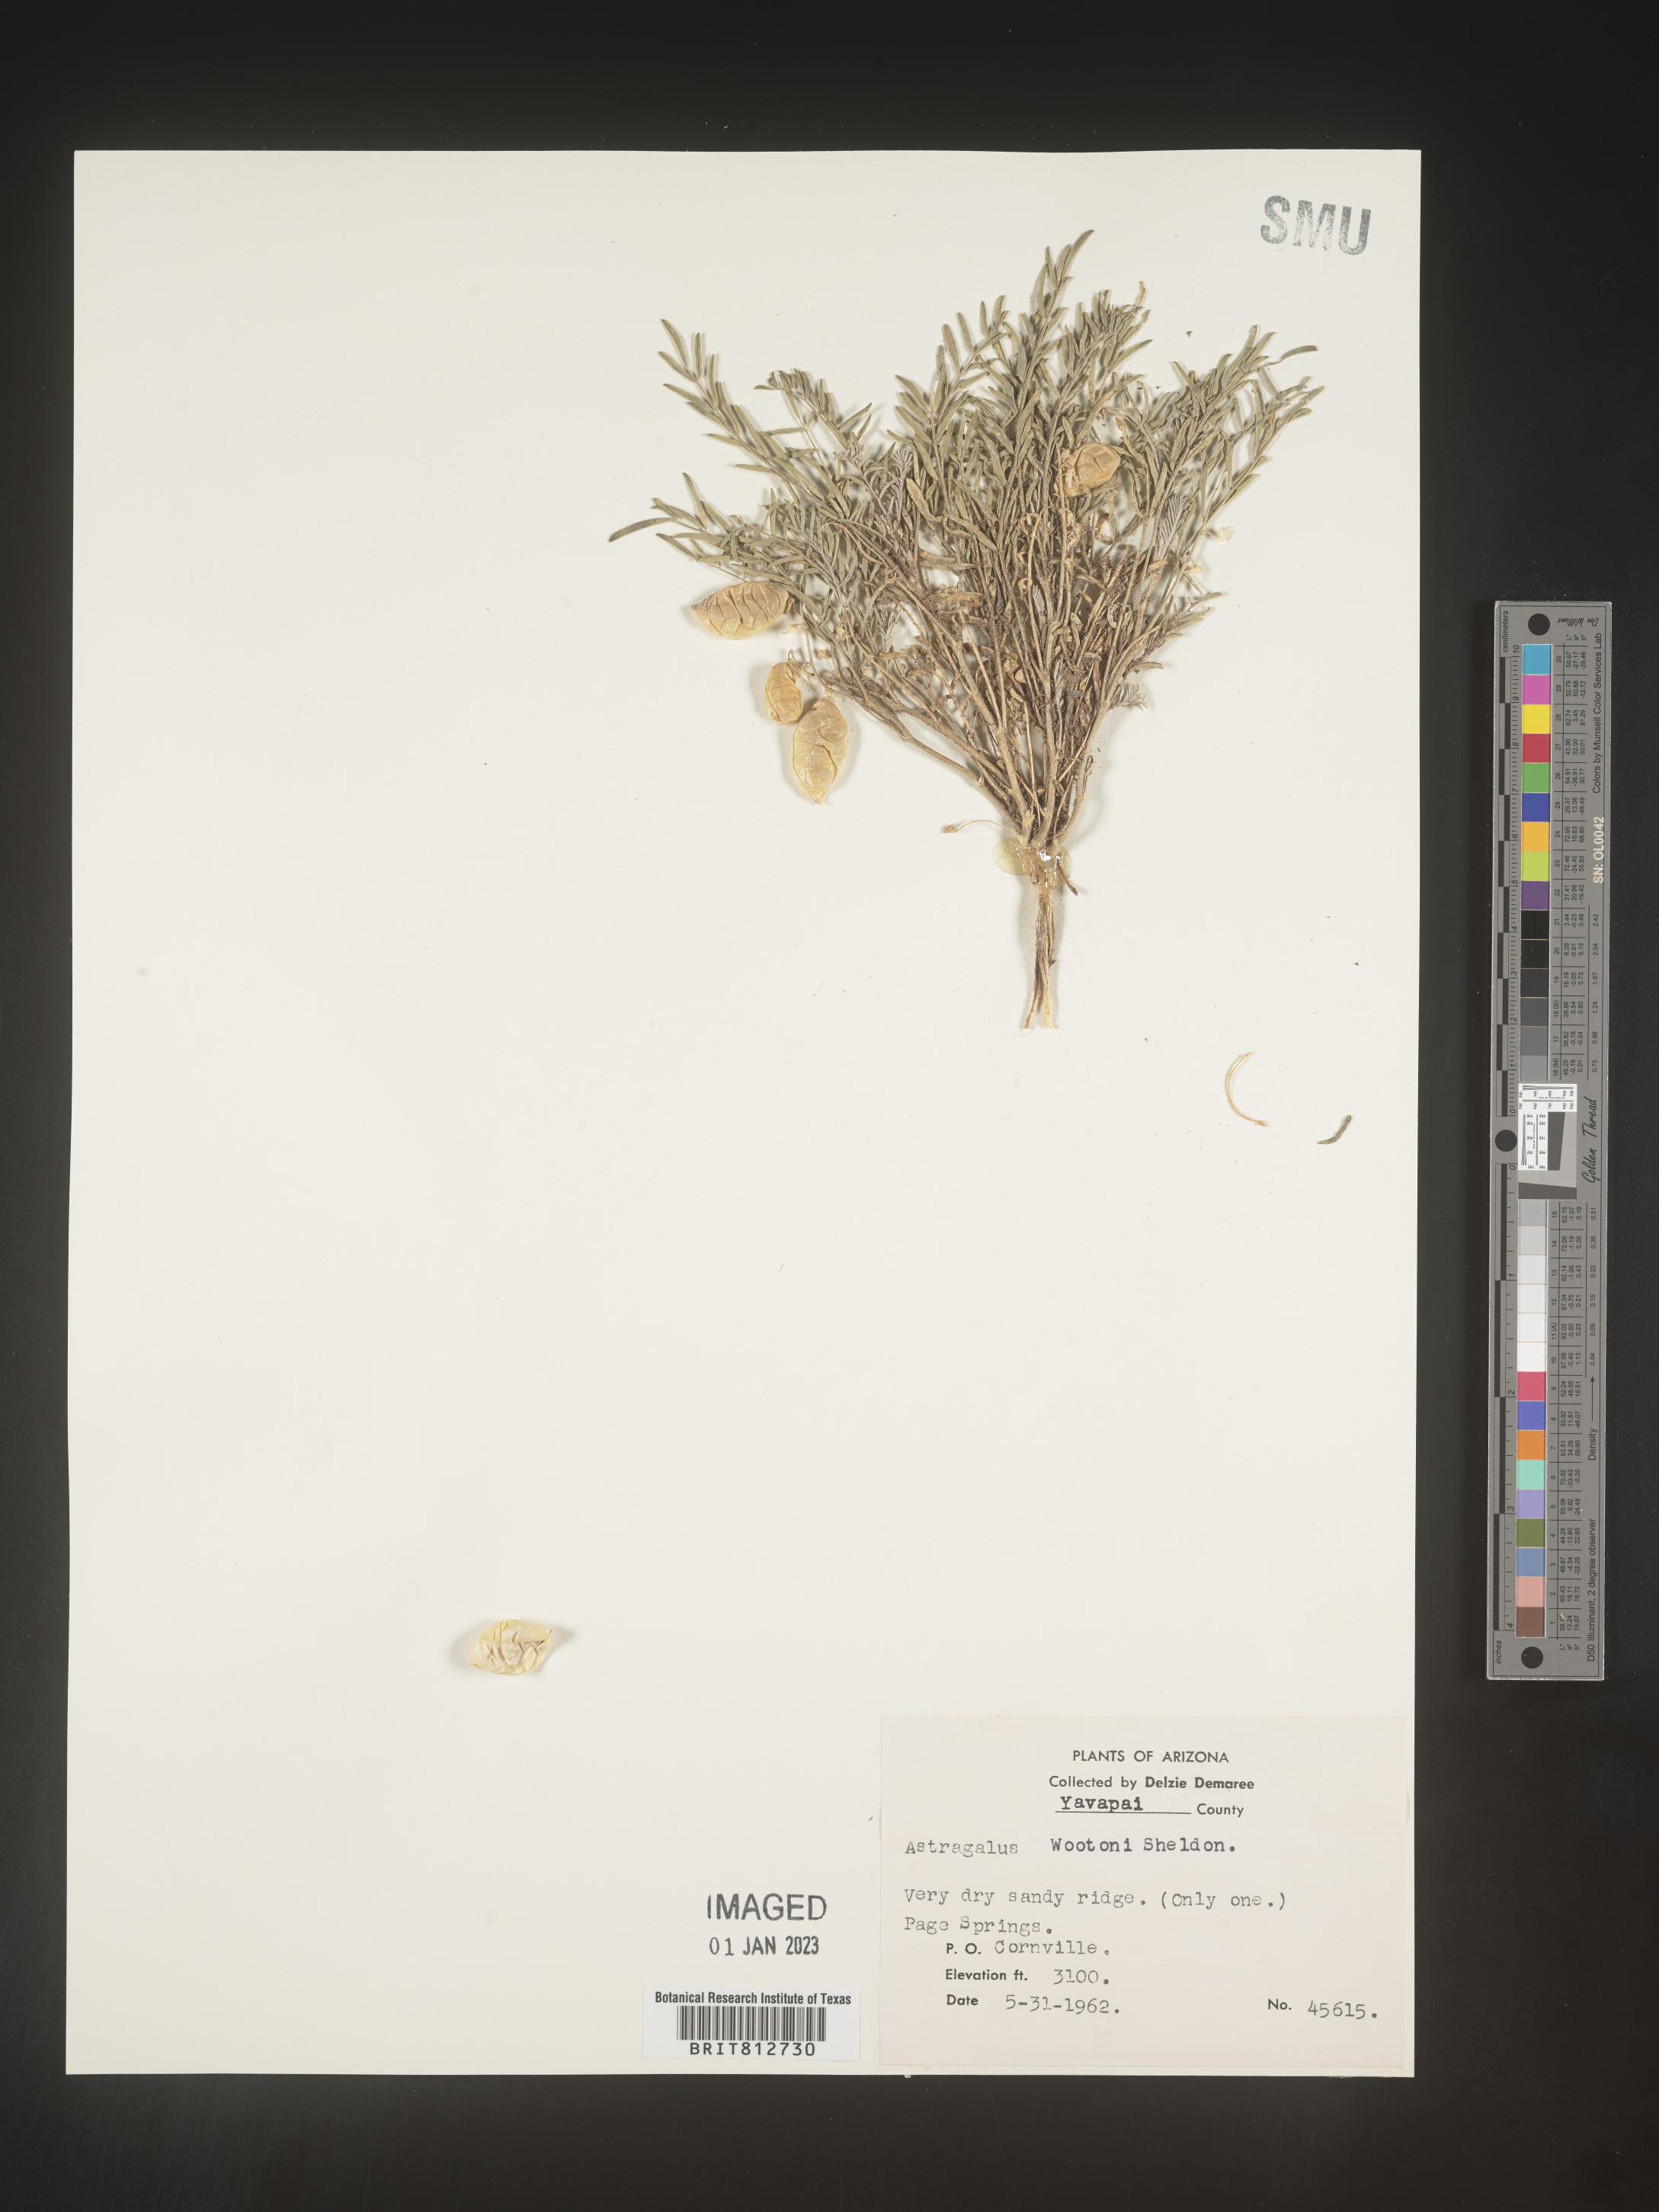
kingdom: Plantae
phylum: Tracheophyta
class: Magnoliopsida
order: Fabales
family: Fabaceae
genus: Astragalus
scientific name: Astragalus wootonii
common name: Wooton's milk-vetch
